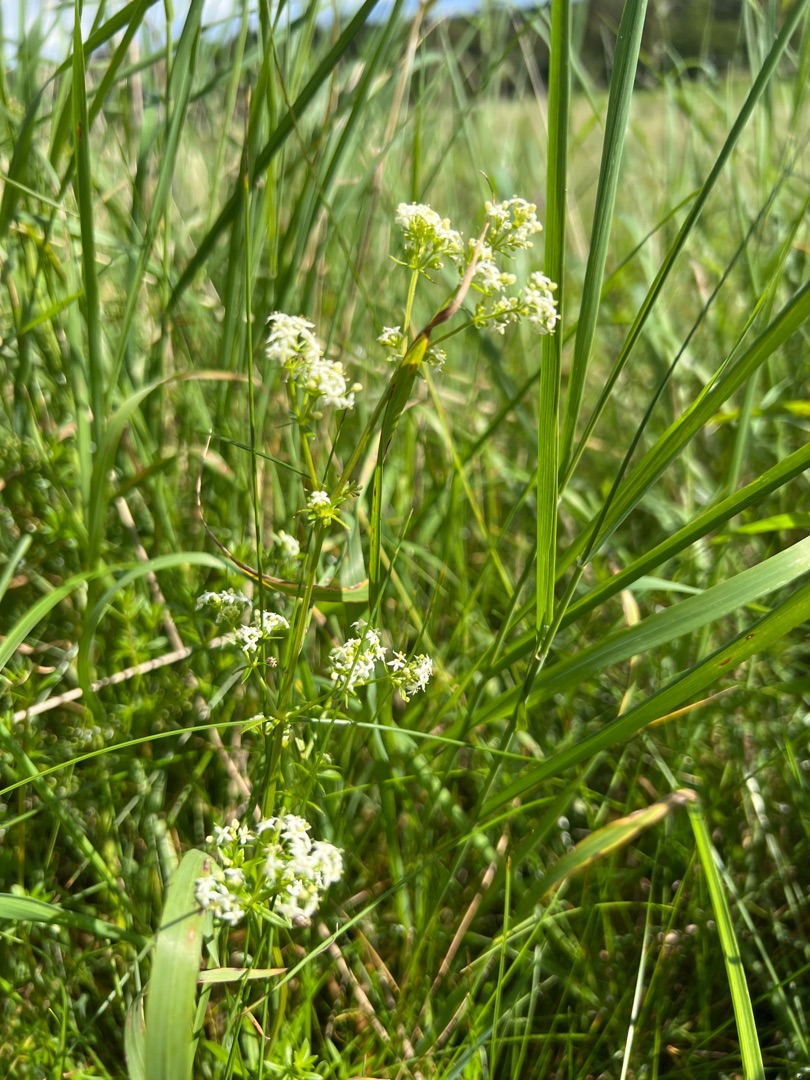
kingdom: Plantae
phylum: Tracheophyta
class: Magnoliopsida
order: Gentianales
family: Rubiaceae
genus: Galium
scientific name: Galium mollugo
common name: Hvid snerre
